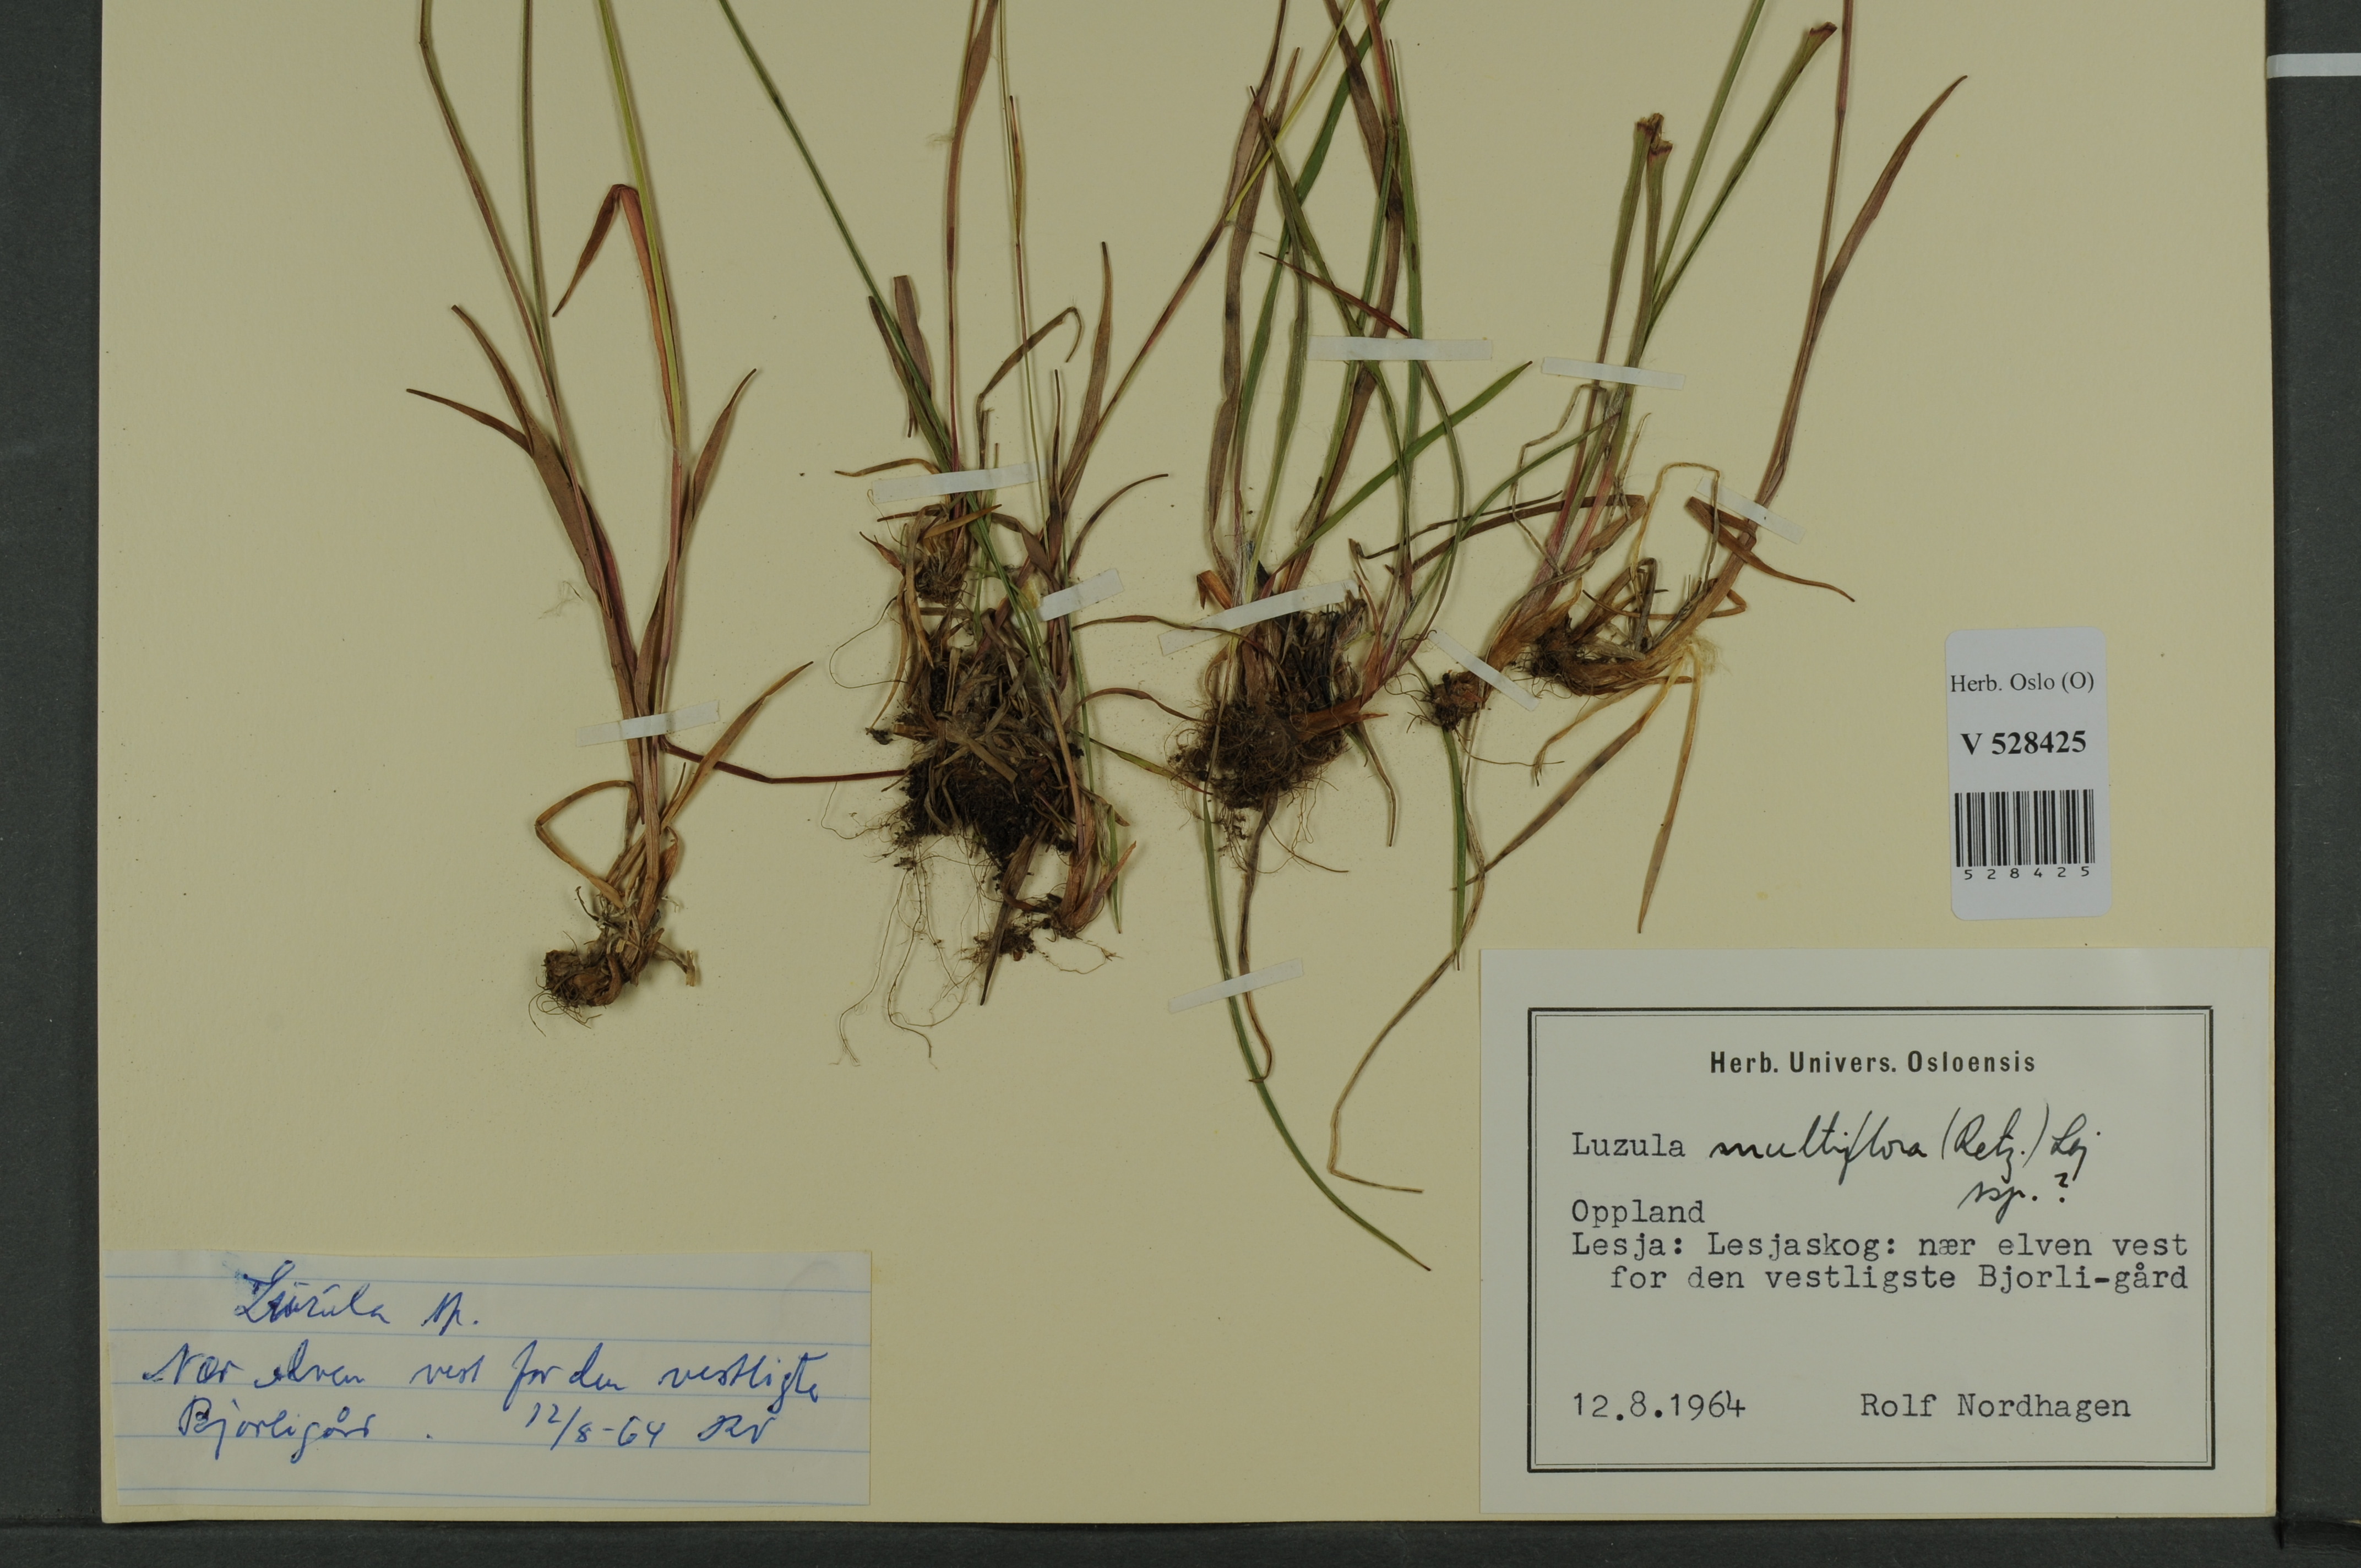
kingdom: Plantae
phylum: Tracheophyta
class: Liliopsida
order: Poales
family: Juncaceae
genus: Luzula
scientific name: Luzula multiflora
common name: Heath wood-rush
